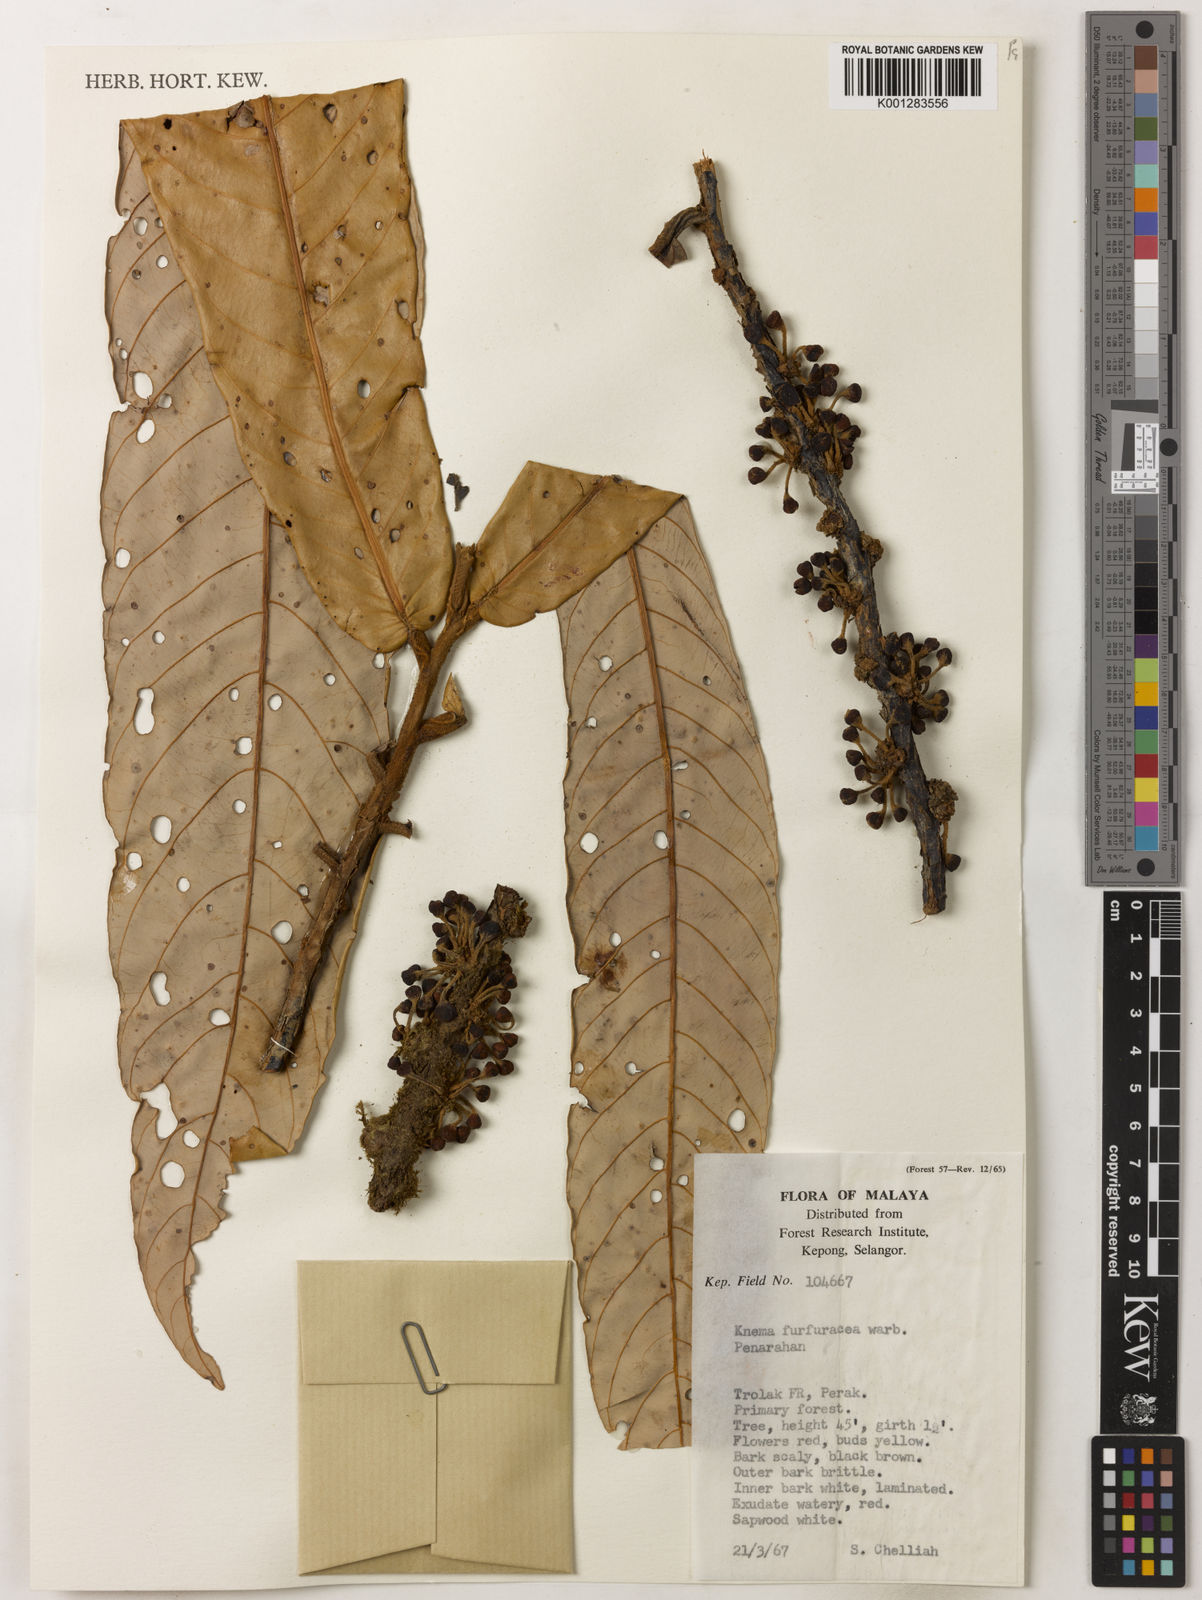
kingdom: Plantae
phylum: Tracheophyta
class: Magnoliopsida
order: Magnoliales
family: Myristicaceae
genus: Knema
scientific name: Knema furfuracea
